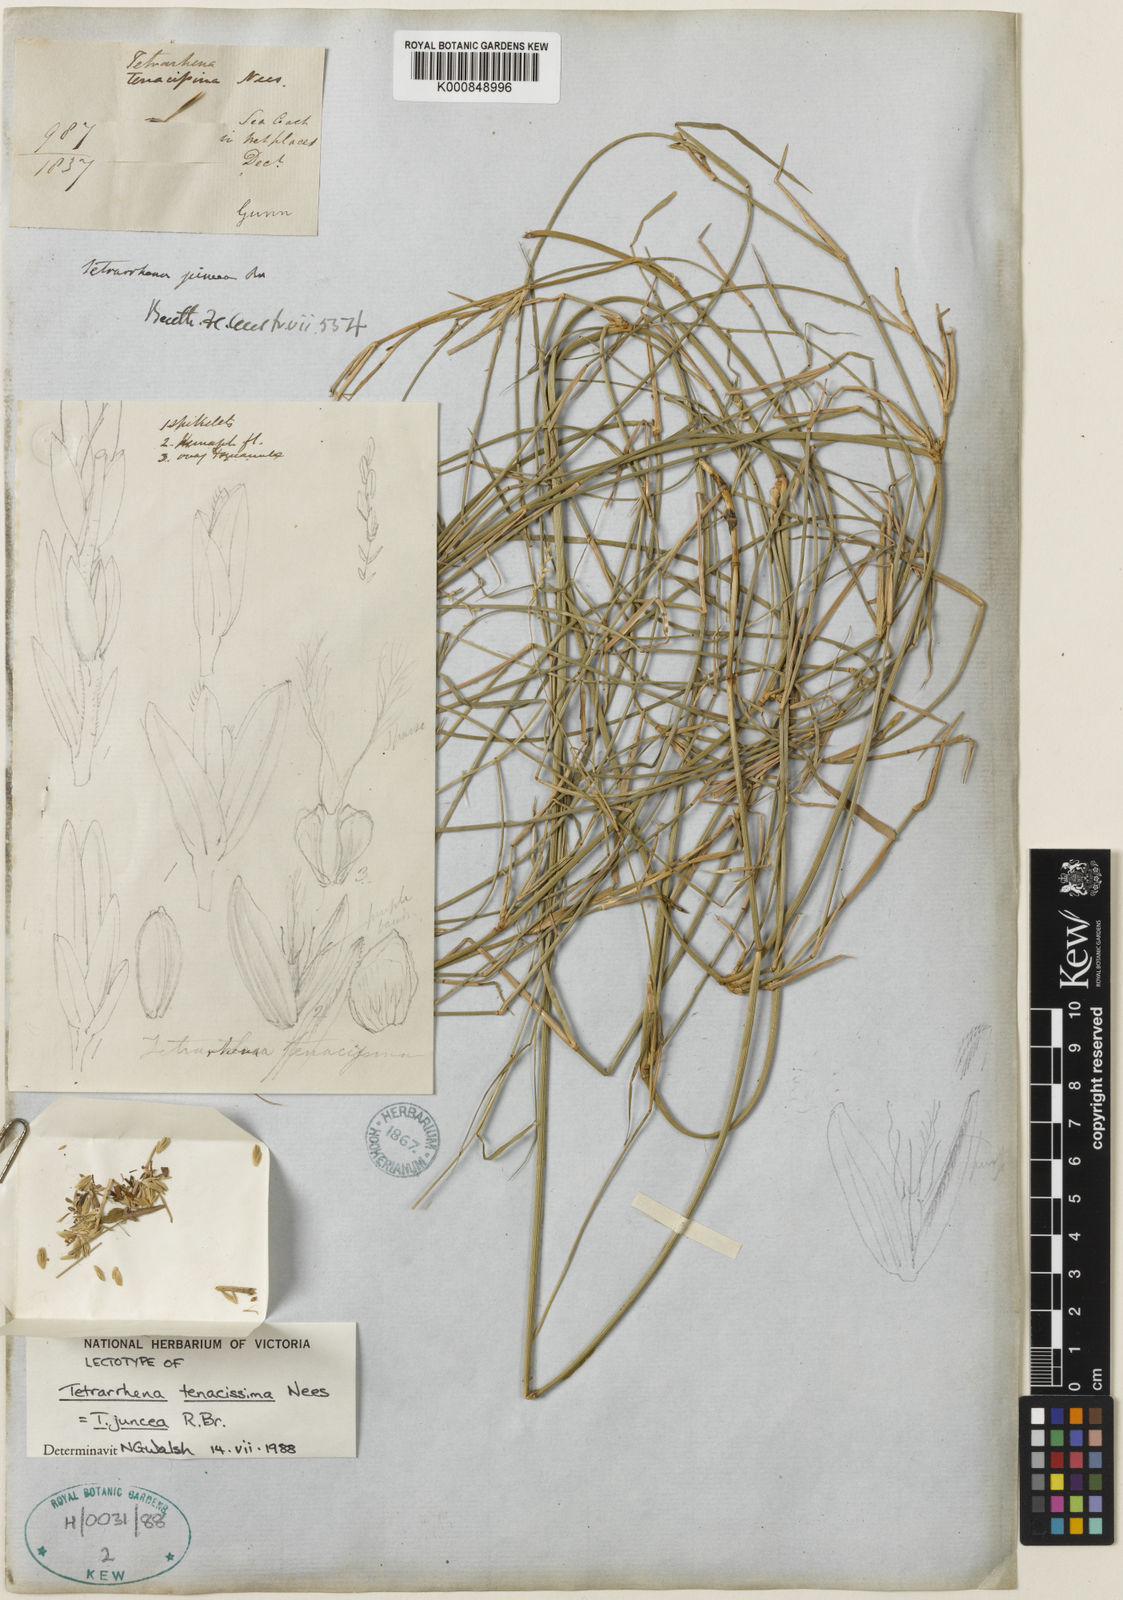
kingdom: Plantae
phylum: Tracheophyta
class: Liliopsida
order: Poales
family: Poaceae
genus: Tetrarrhena
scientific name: Tetrarrhena juncea
